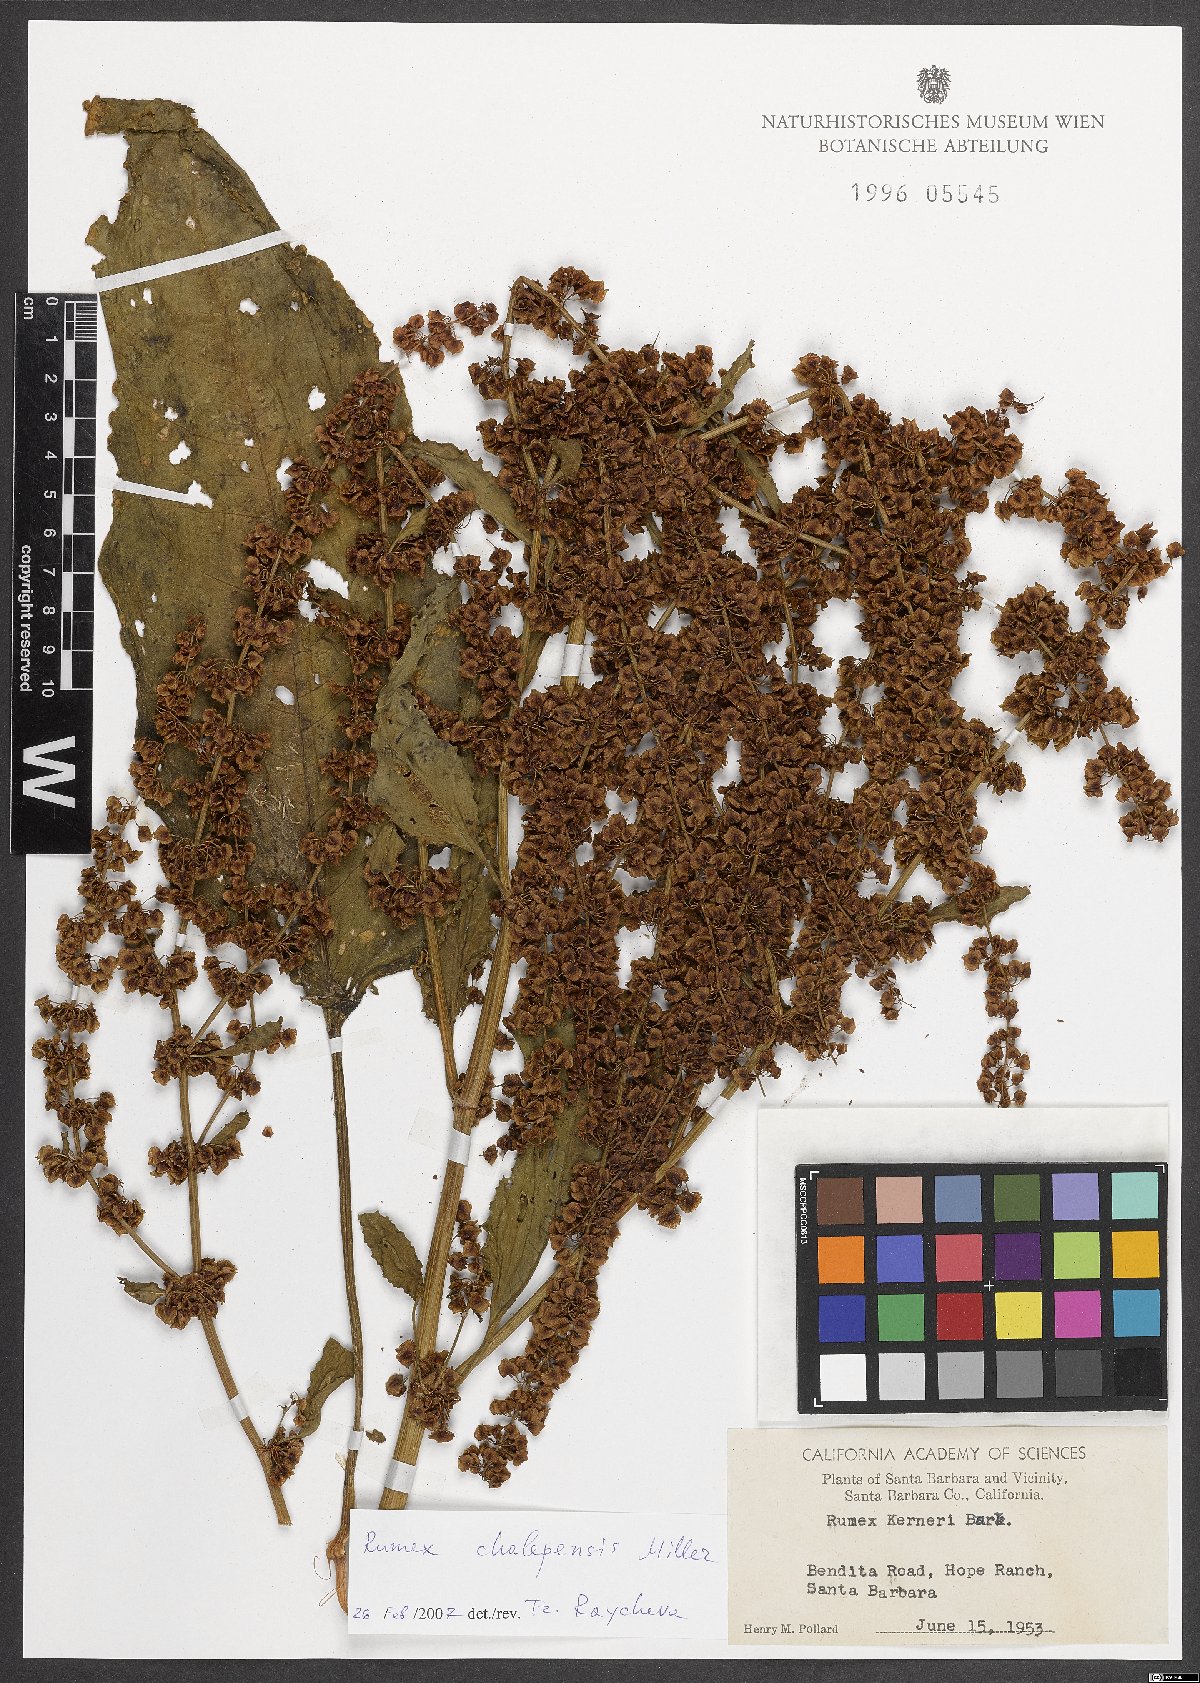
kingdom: Plantae
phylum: Tracheophyta
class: Magnoliopsida
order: Caryophyllales
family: Polygonaceae
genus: Rumex
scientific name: Rumex chalepensis
